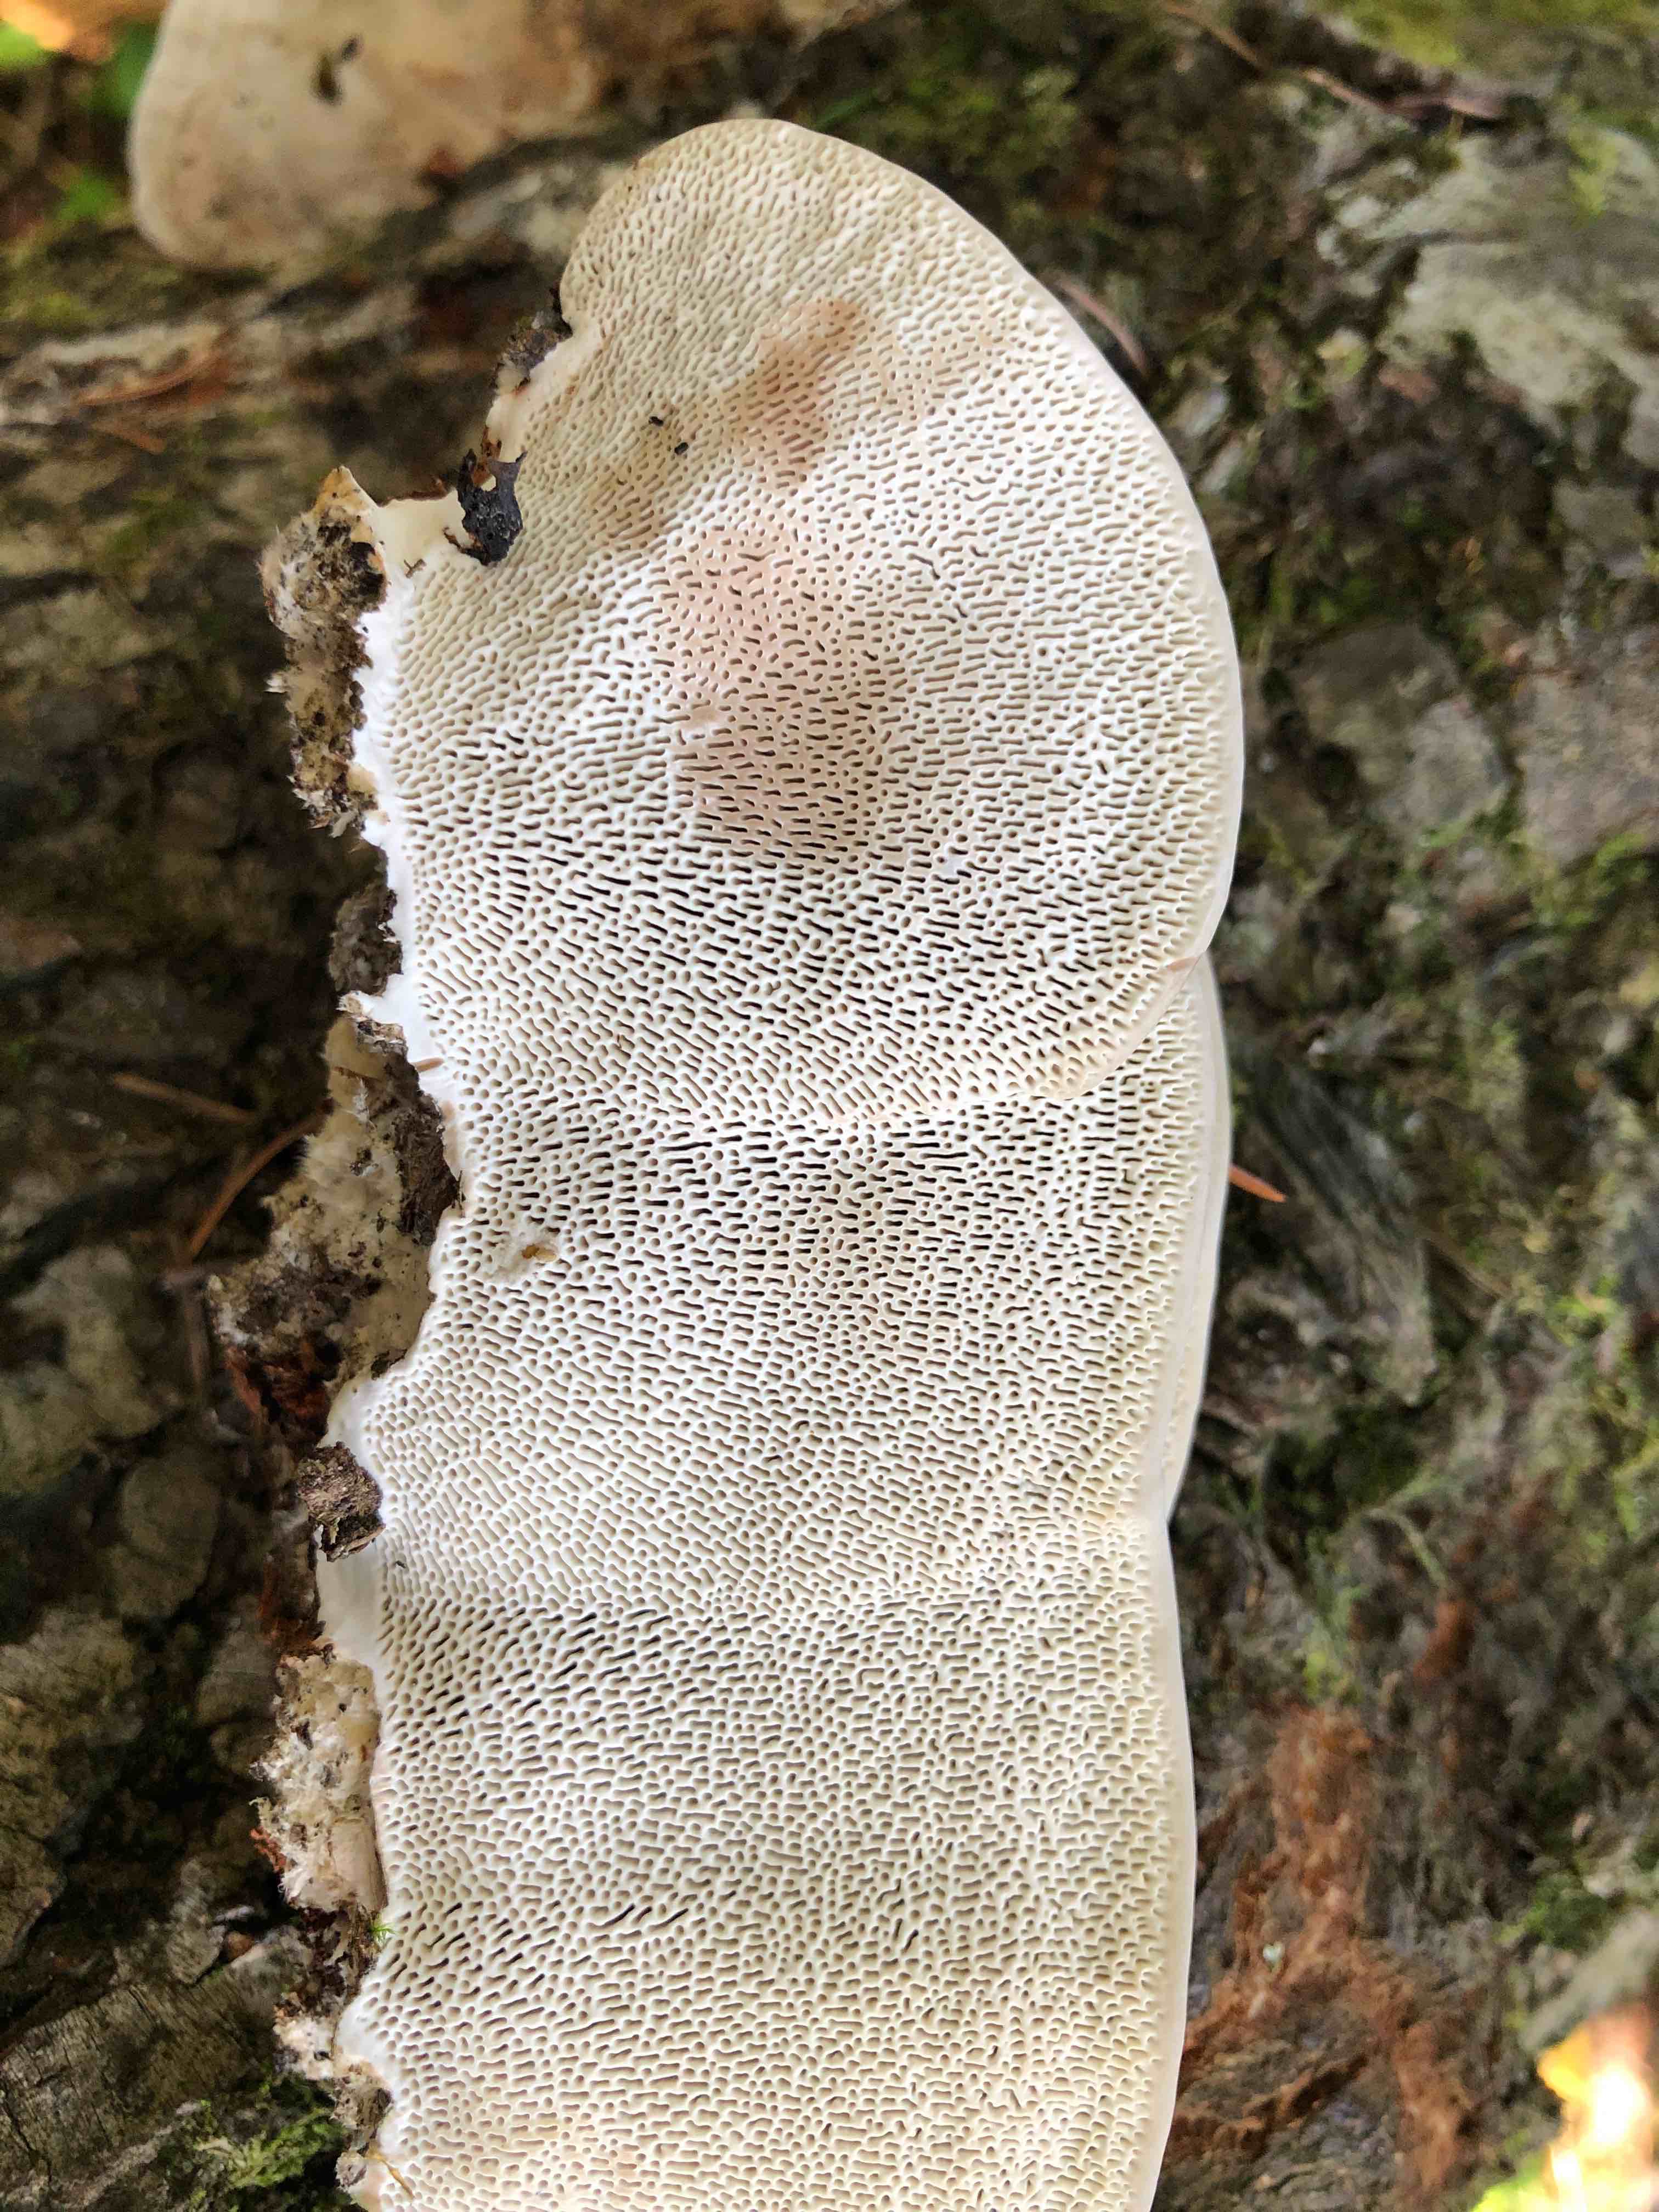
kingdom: Fungi
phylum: Basidiomycota
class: Agaricomycetes
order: Polyporales
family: Polyporaceae
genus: Daedaleopsis
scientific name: Daedaleopsis confragosa
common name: rødmende læderporesvamp
